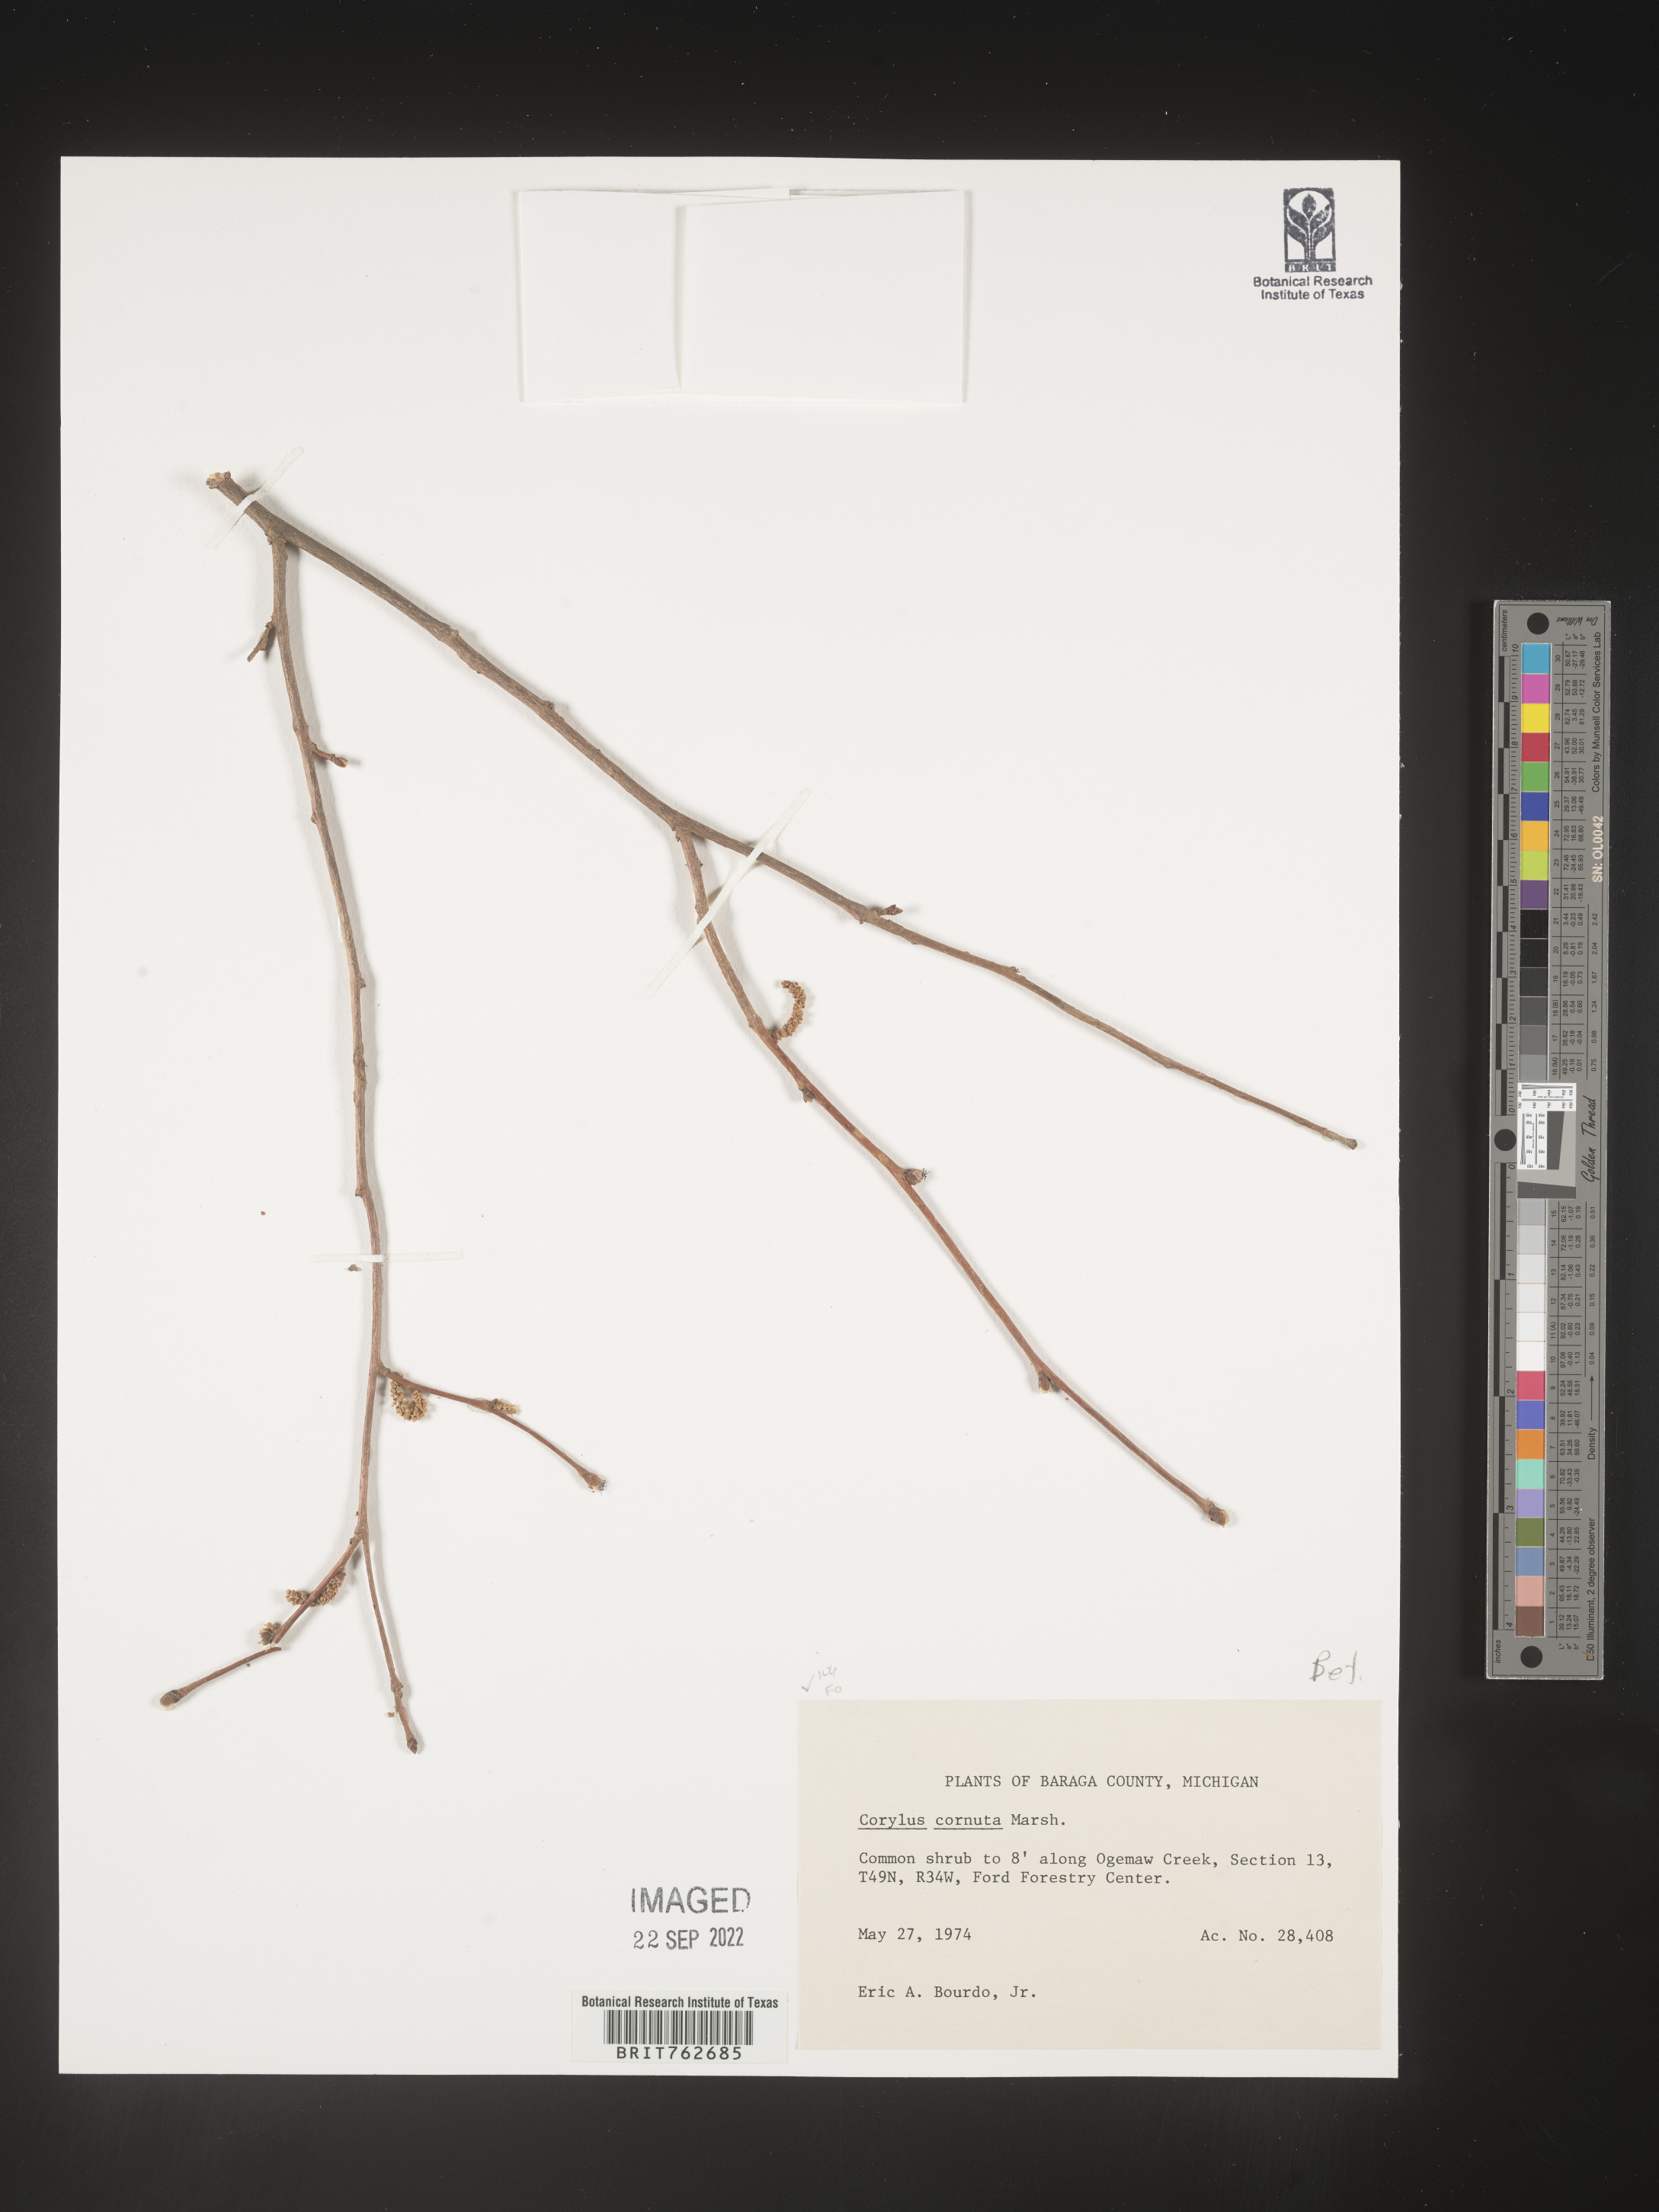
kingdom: Plantae
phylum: Tracheophyta
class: Magnoliopsida
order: Fagales
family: Betulaceae
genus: Corylus
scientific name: Corylus cornuta
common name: Beaked hazel
